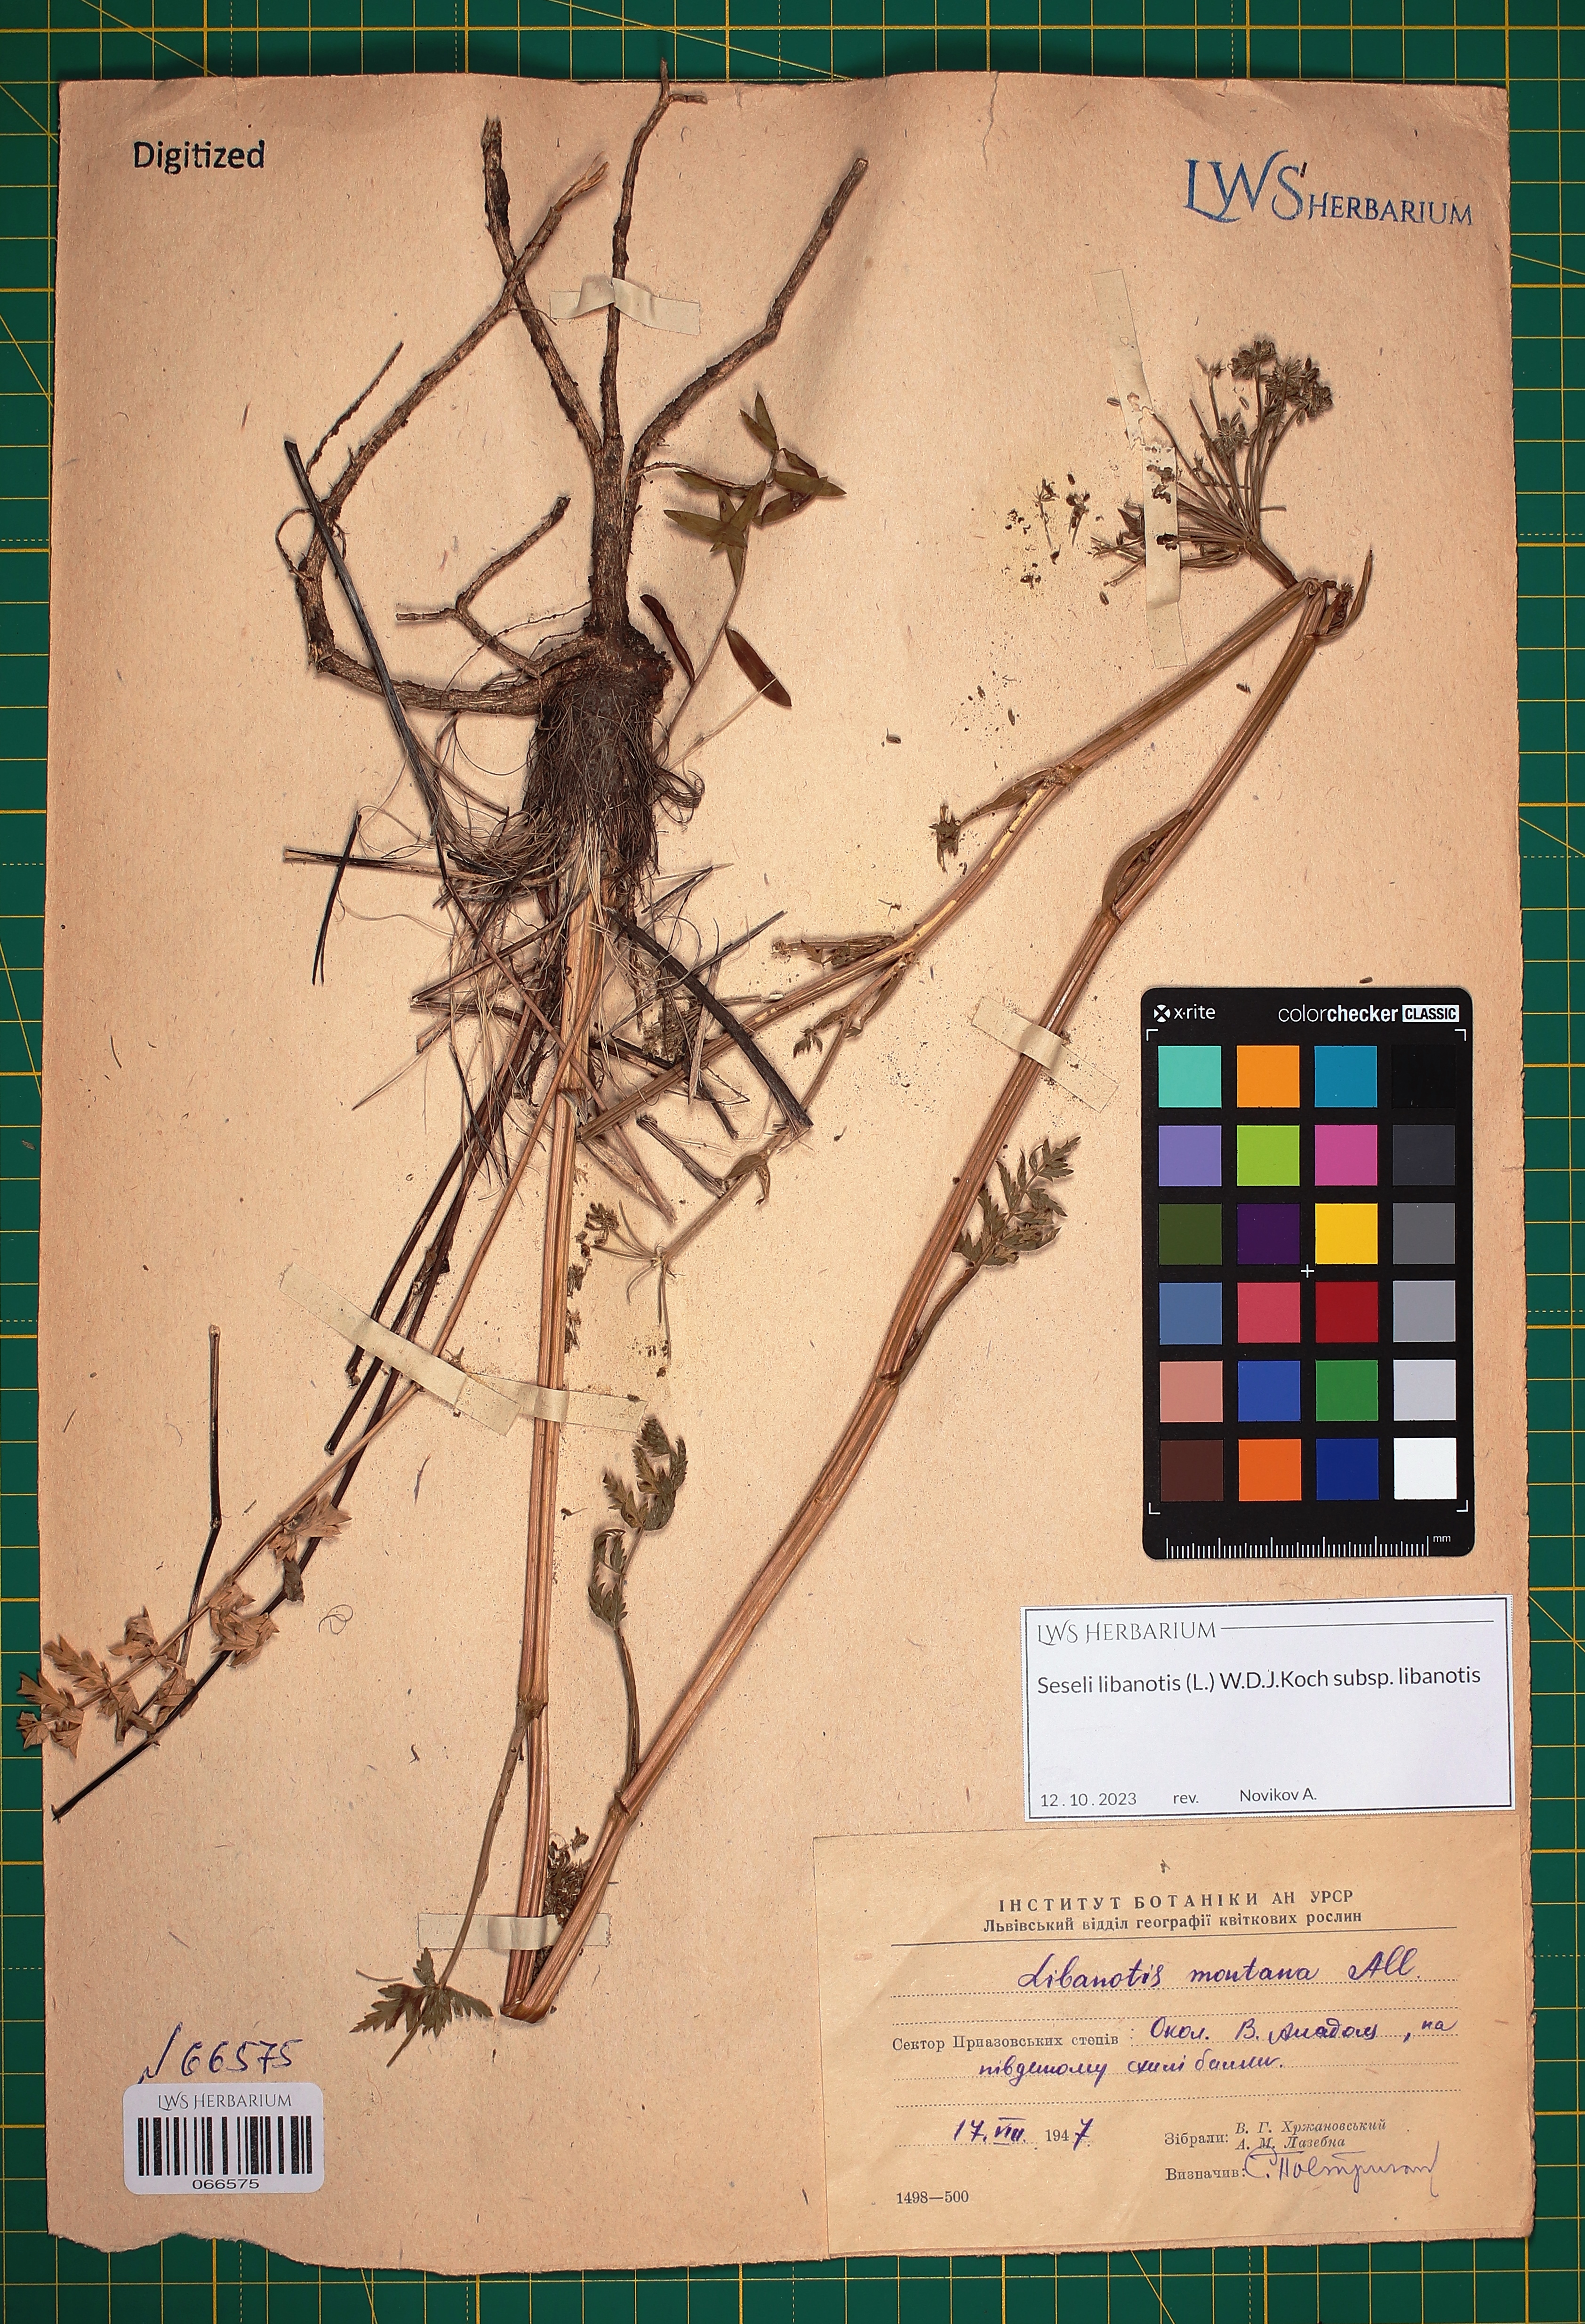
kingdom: Plantae
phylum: Tracheophyta
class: Magnoliopsida
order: Apiales
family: Apiaceae
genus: Seseli
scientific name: Seseli libanotis
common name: Mooncarrot
